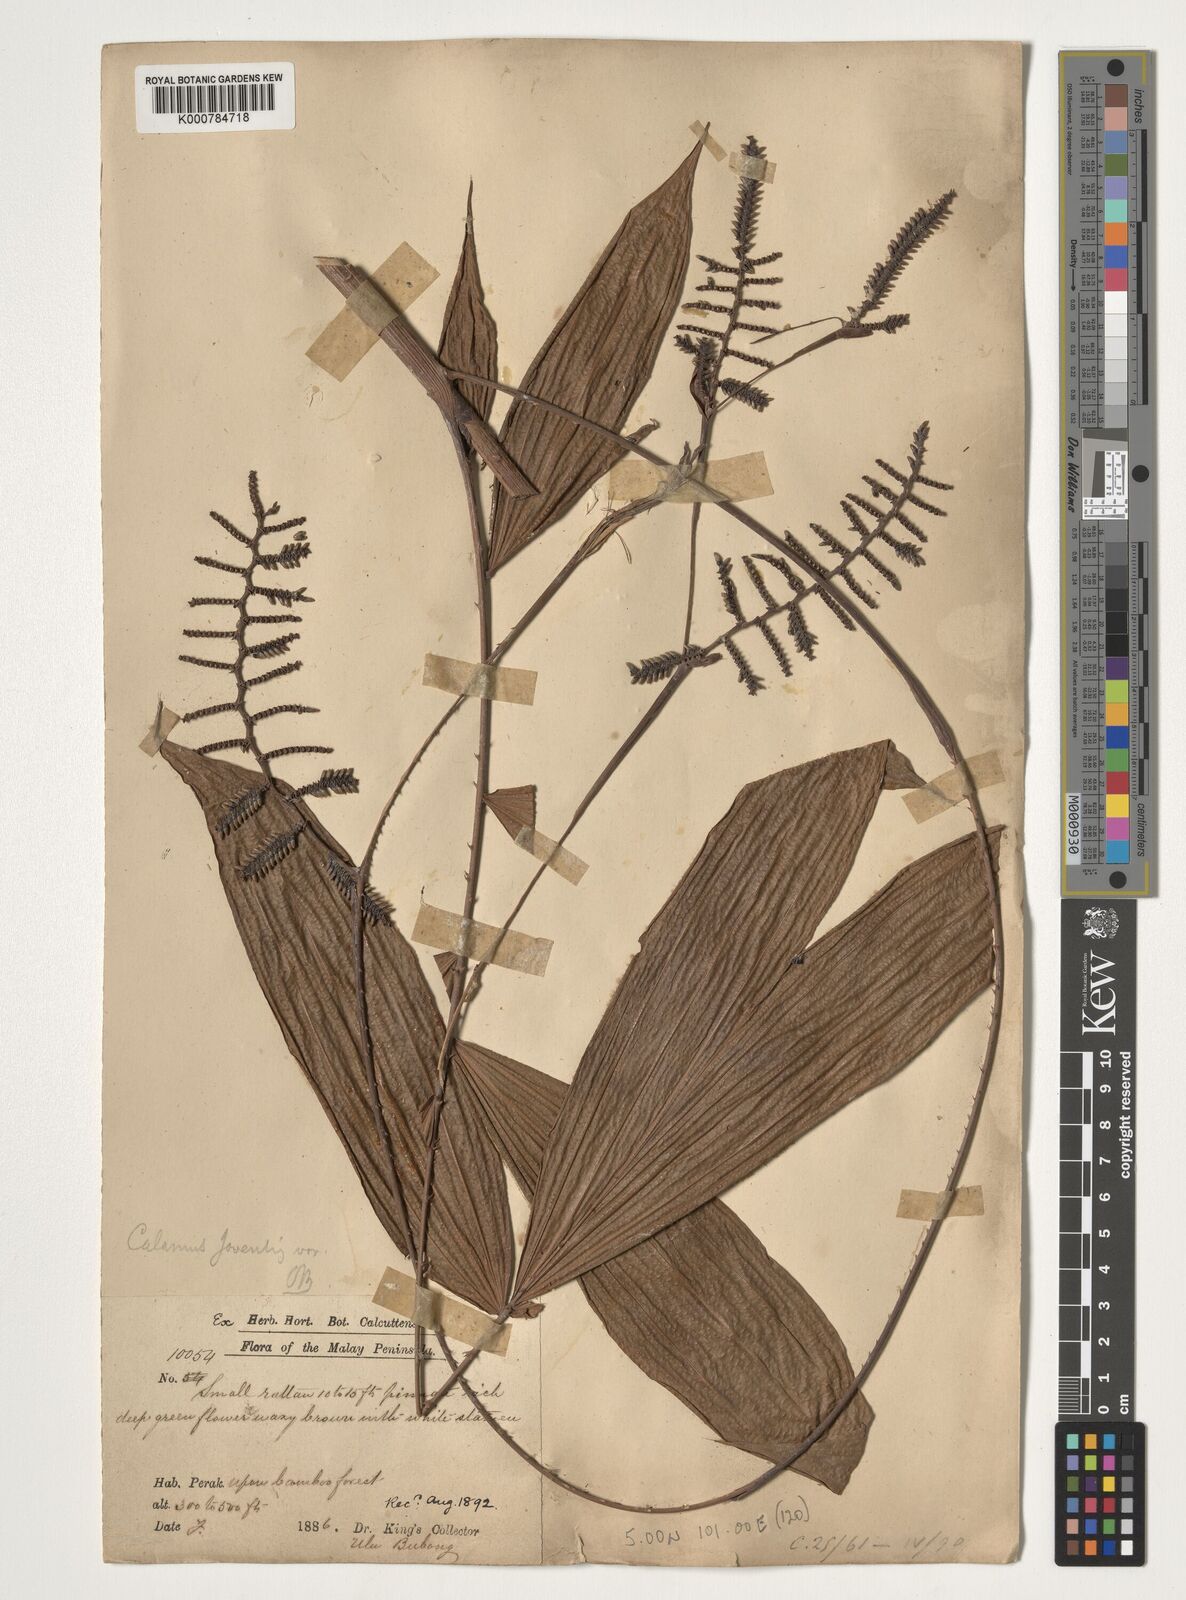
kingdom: Plantae
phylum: Tracheophyta
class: Liliopsida
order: Arecales
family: Arecaceae
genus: Calamus
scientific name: Calamus javensis
